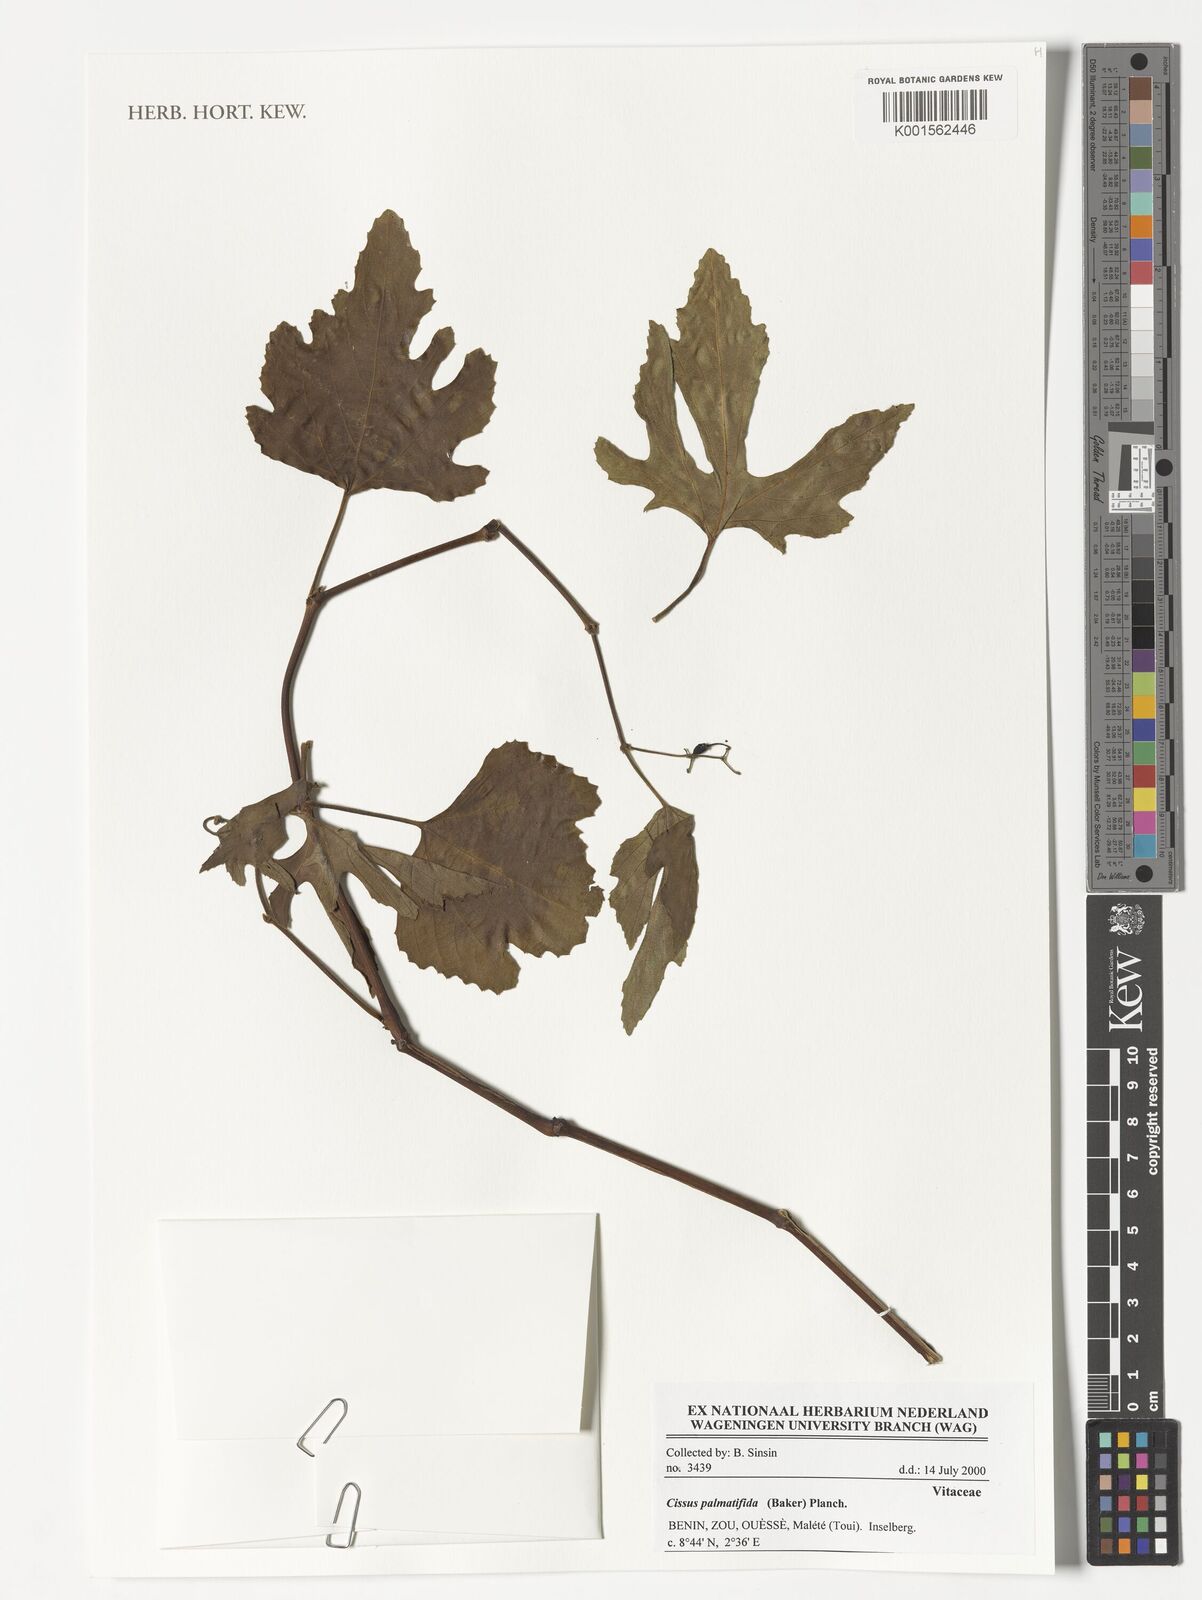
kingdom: Plantae
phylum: Tracheophyta
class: Magnoliopsida
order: Vitales
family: Vitaceae
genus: Cissus
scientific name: Cissus palmatifida
